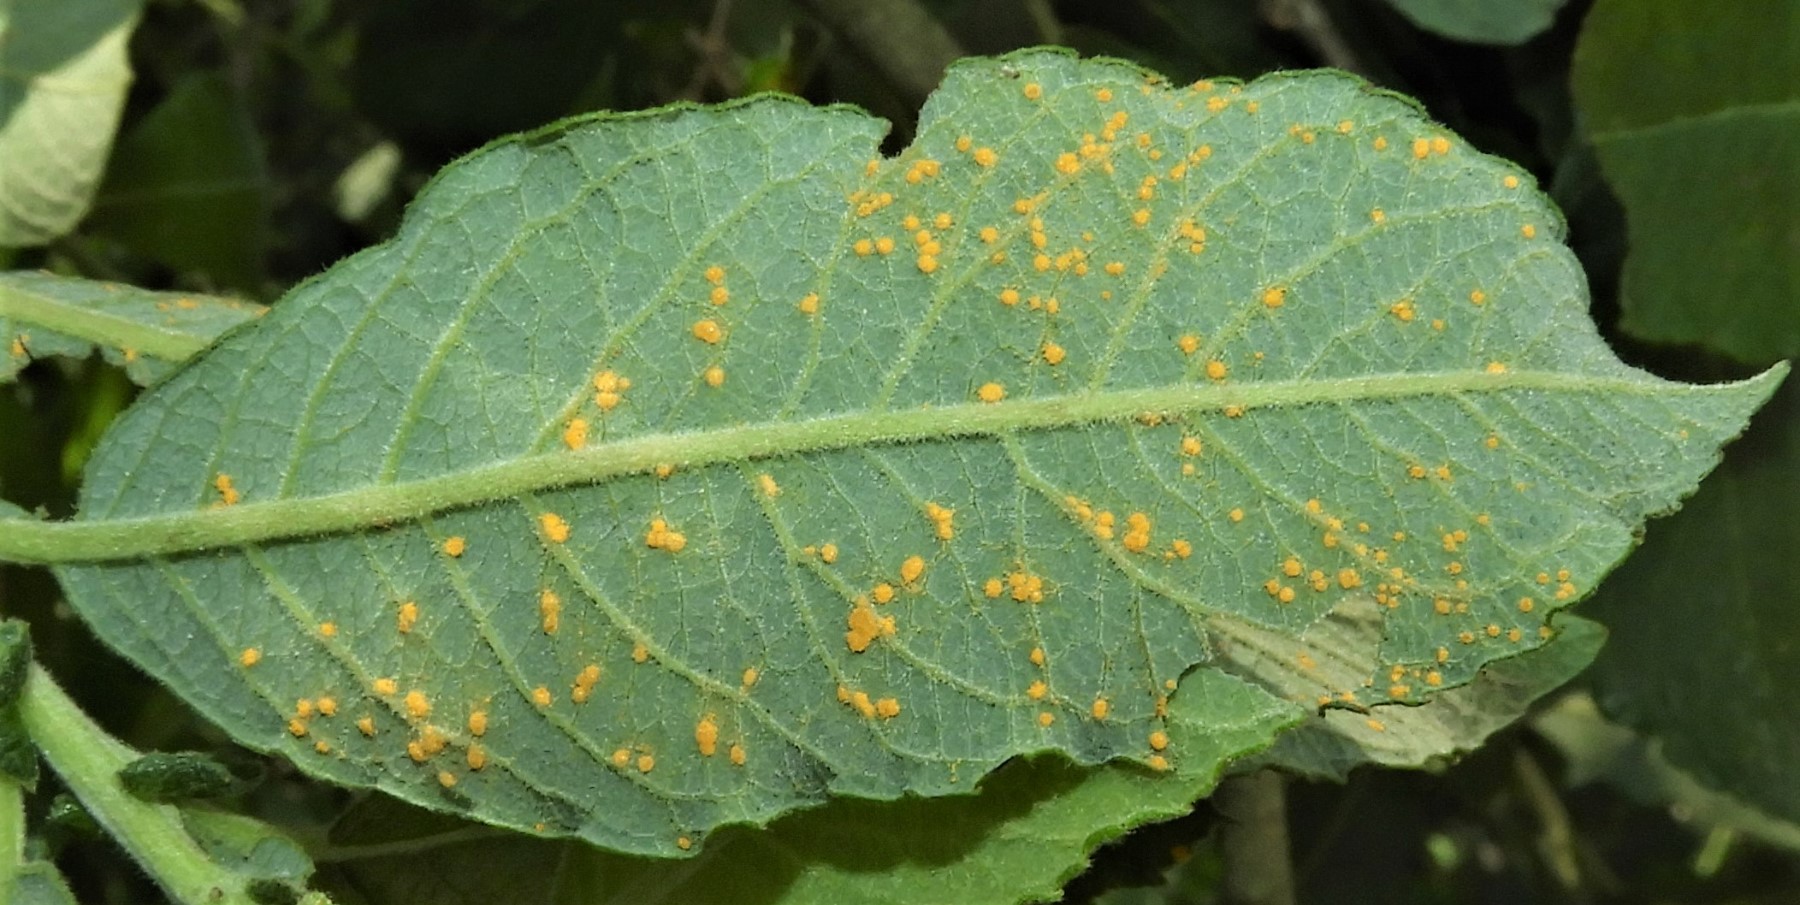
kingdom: Fungi
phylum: Basidiomycota
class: Pucciniomycetes
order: Pucciniales
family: Melampsoraceae
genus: Melampsora
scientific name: Melampsora
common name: skorperust
